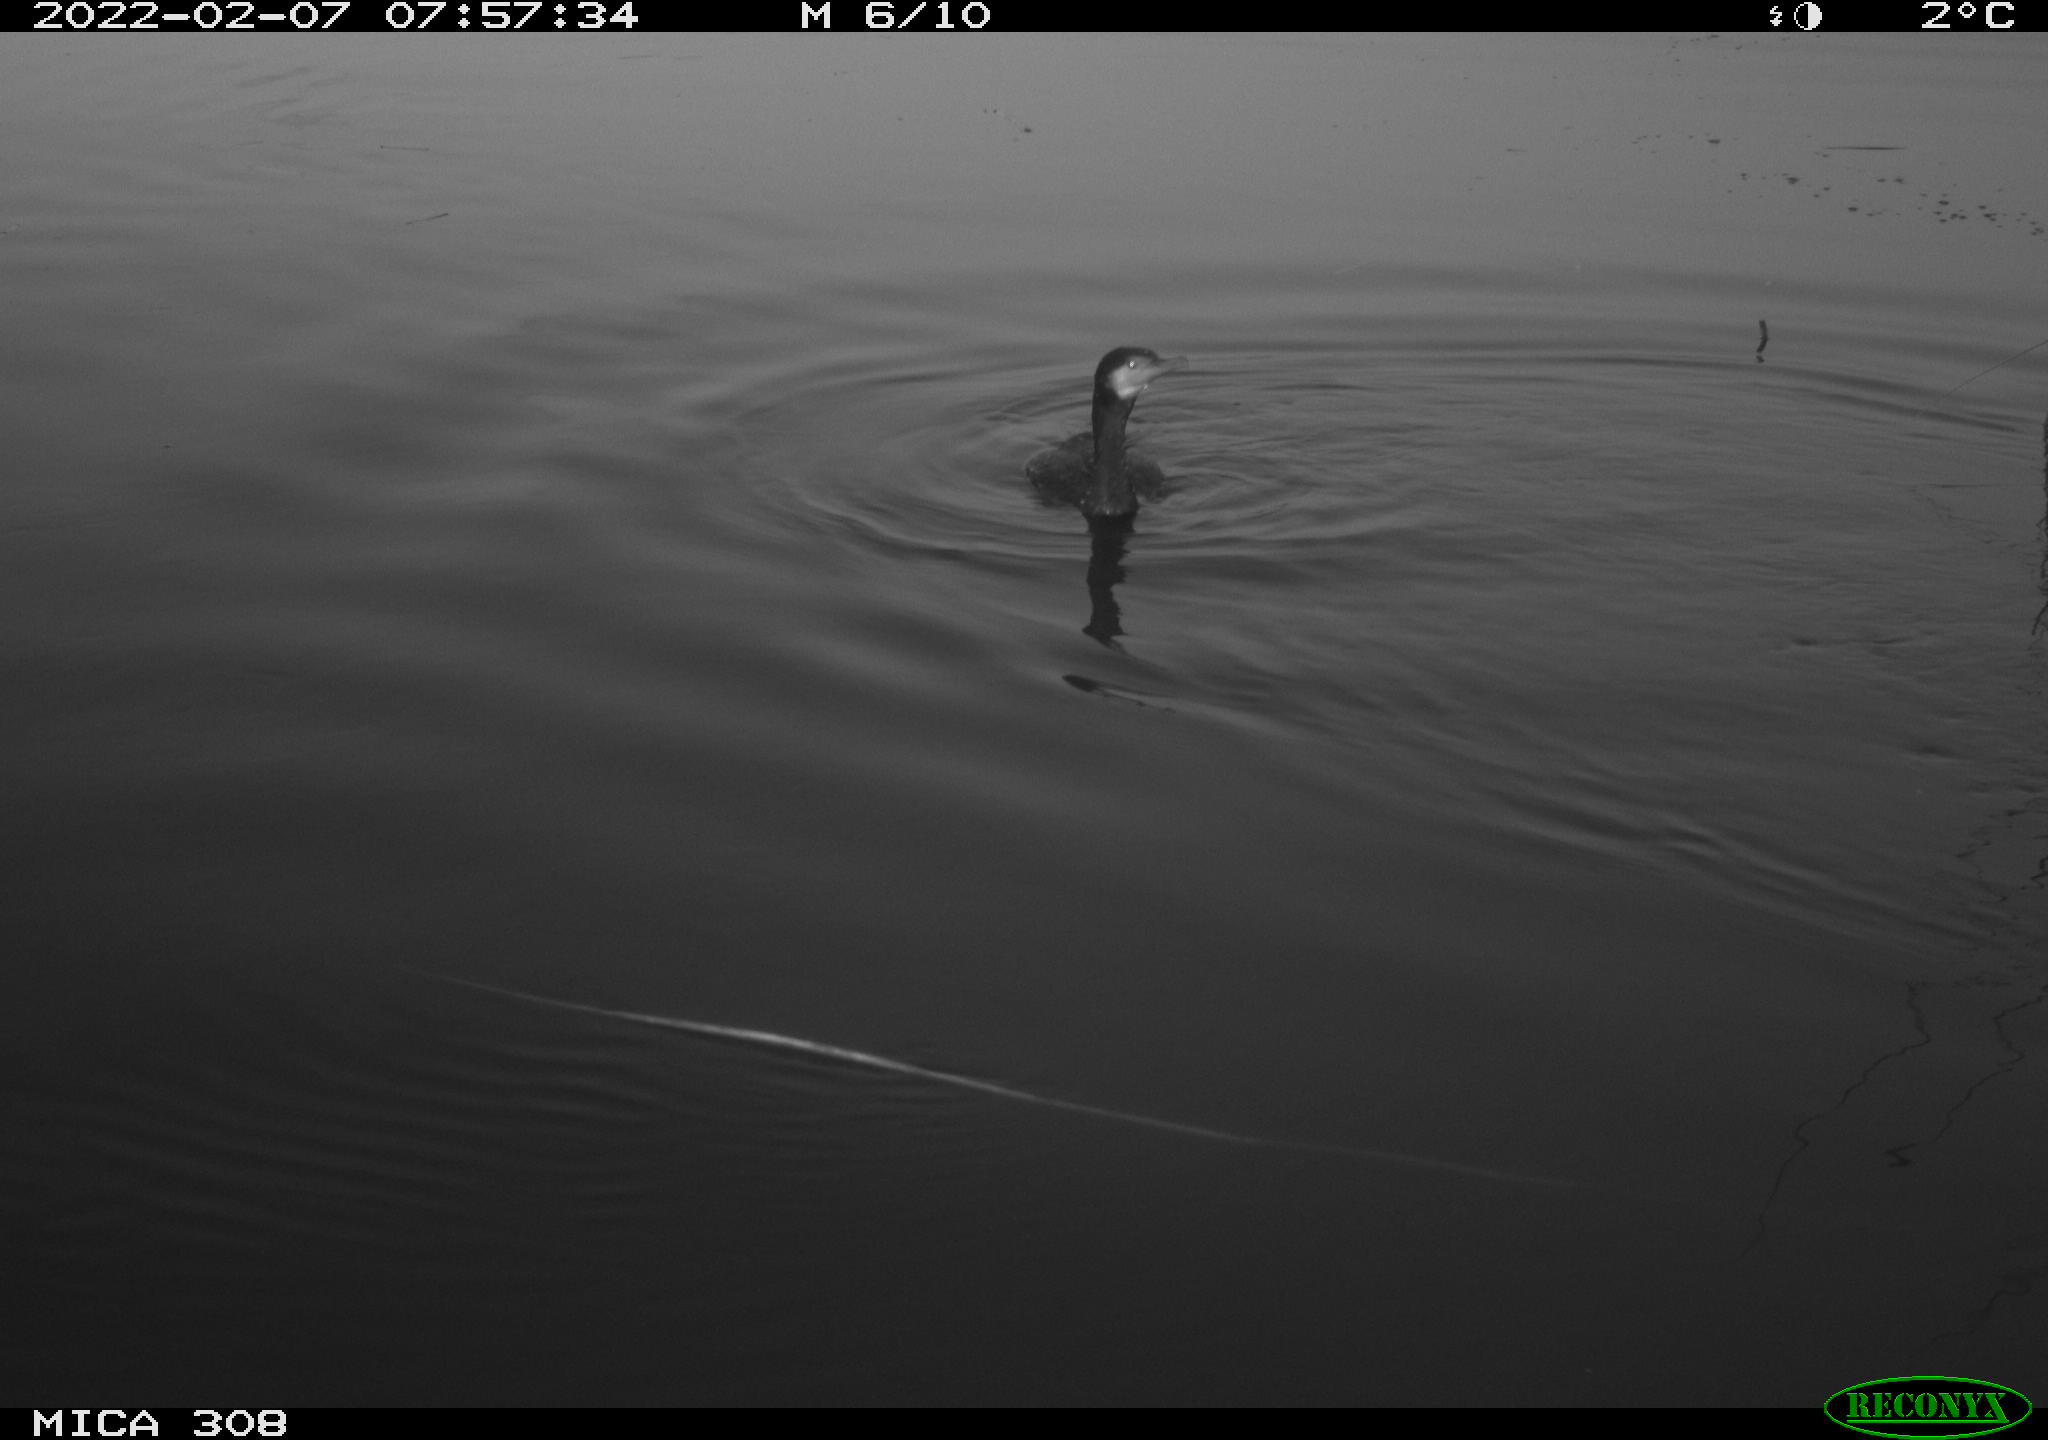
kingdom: Animalia
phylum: Chordata
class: Aves
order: Suliformes
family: Phalacrocoracidae
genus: Phalacrocorax
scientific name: Phalacrocorax carbo
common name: Great cormorant
